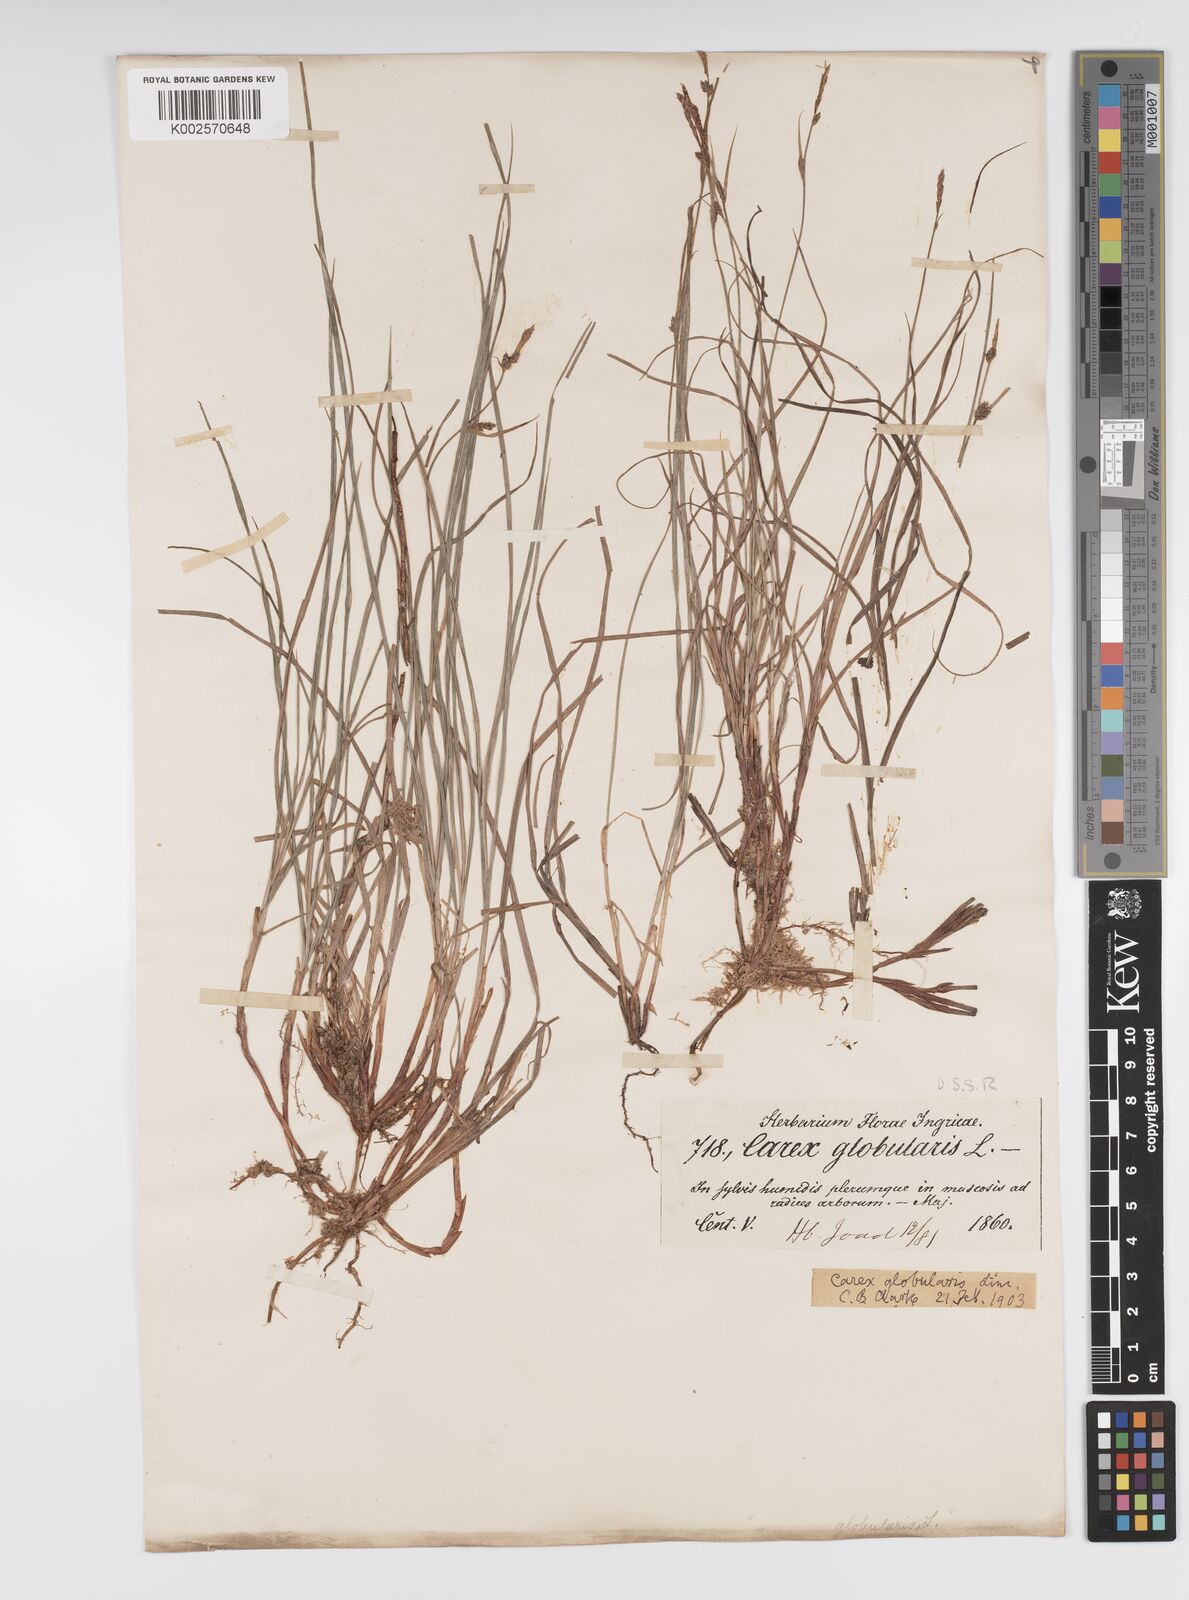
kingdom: Plantae
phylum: Tracheophyta
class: Liliopsida
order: Poales
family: Cyperaceae
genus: Carex
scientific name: Carex globularis
